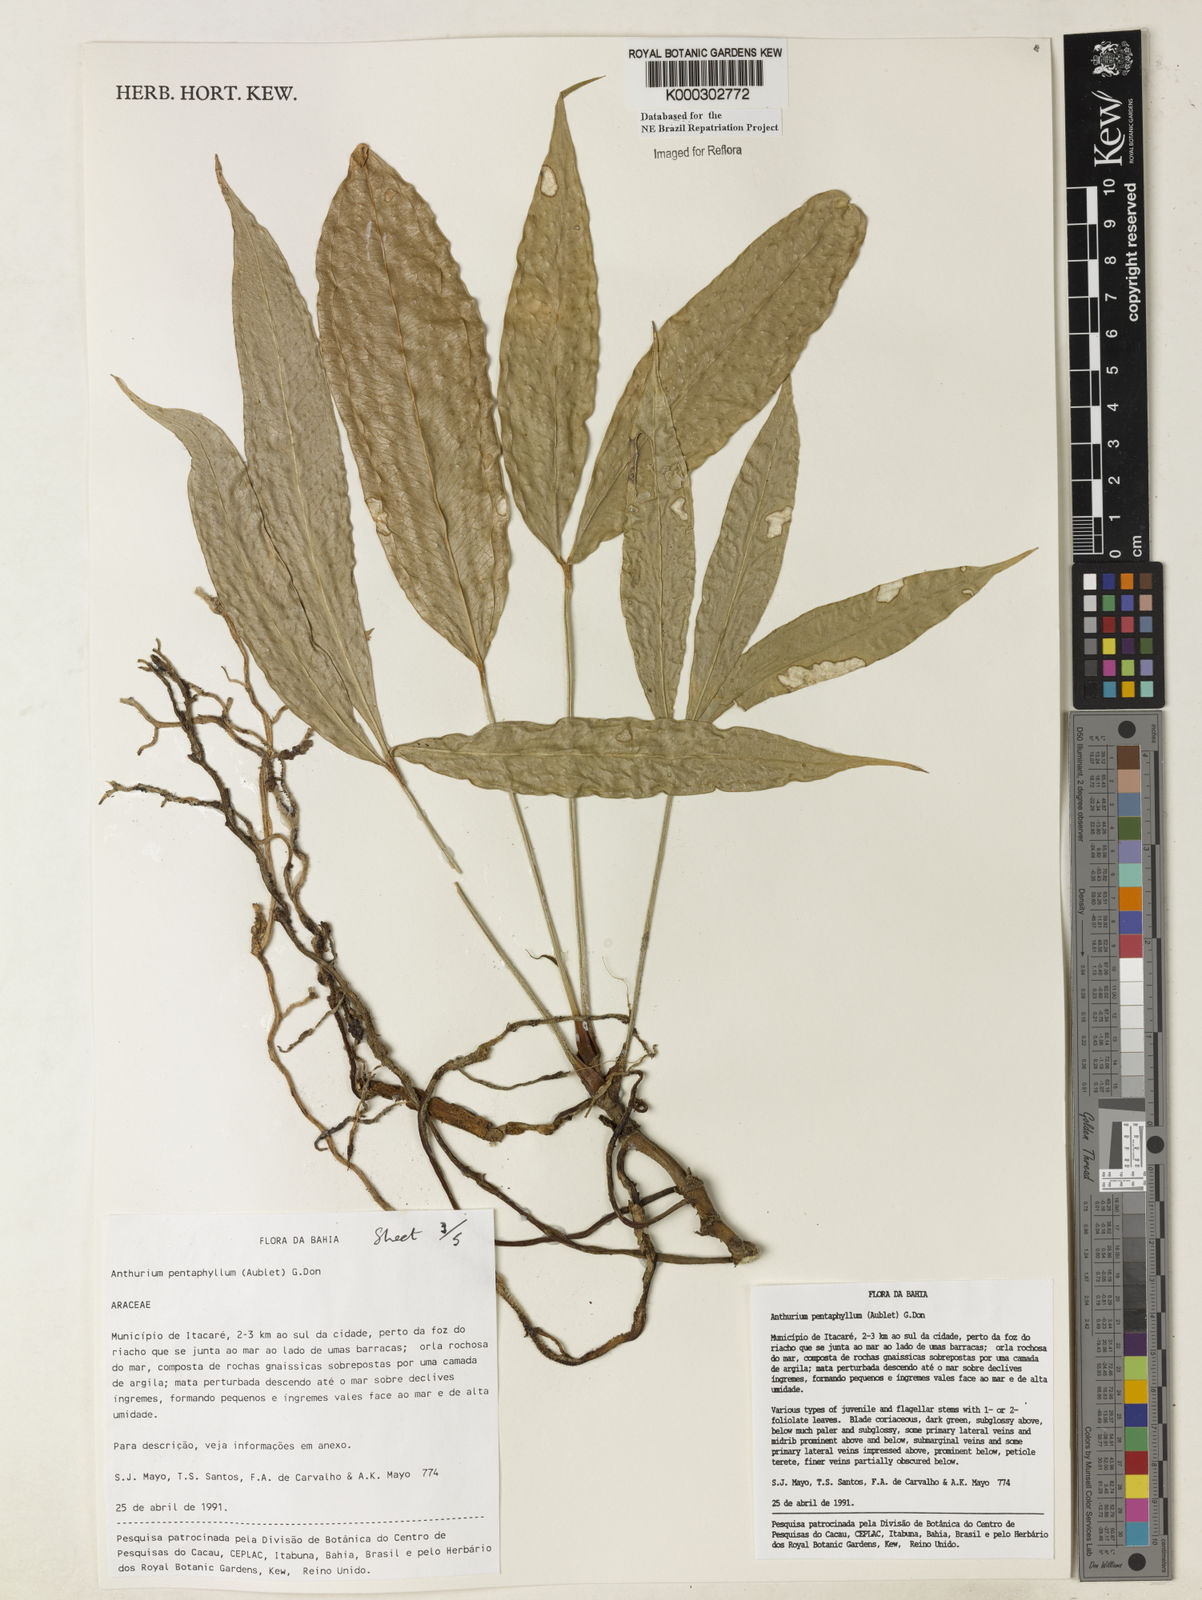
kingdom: Plantae
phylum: Tracheophyta
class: Liliopsida
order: Alismatales
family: Araceae
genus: Anthurium
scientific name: Anthurium pentaphyllum
